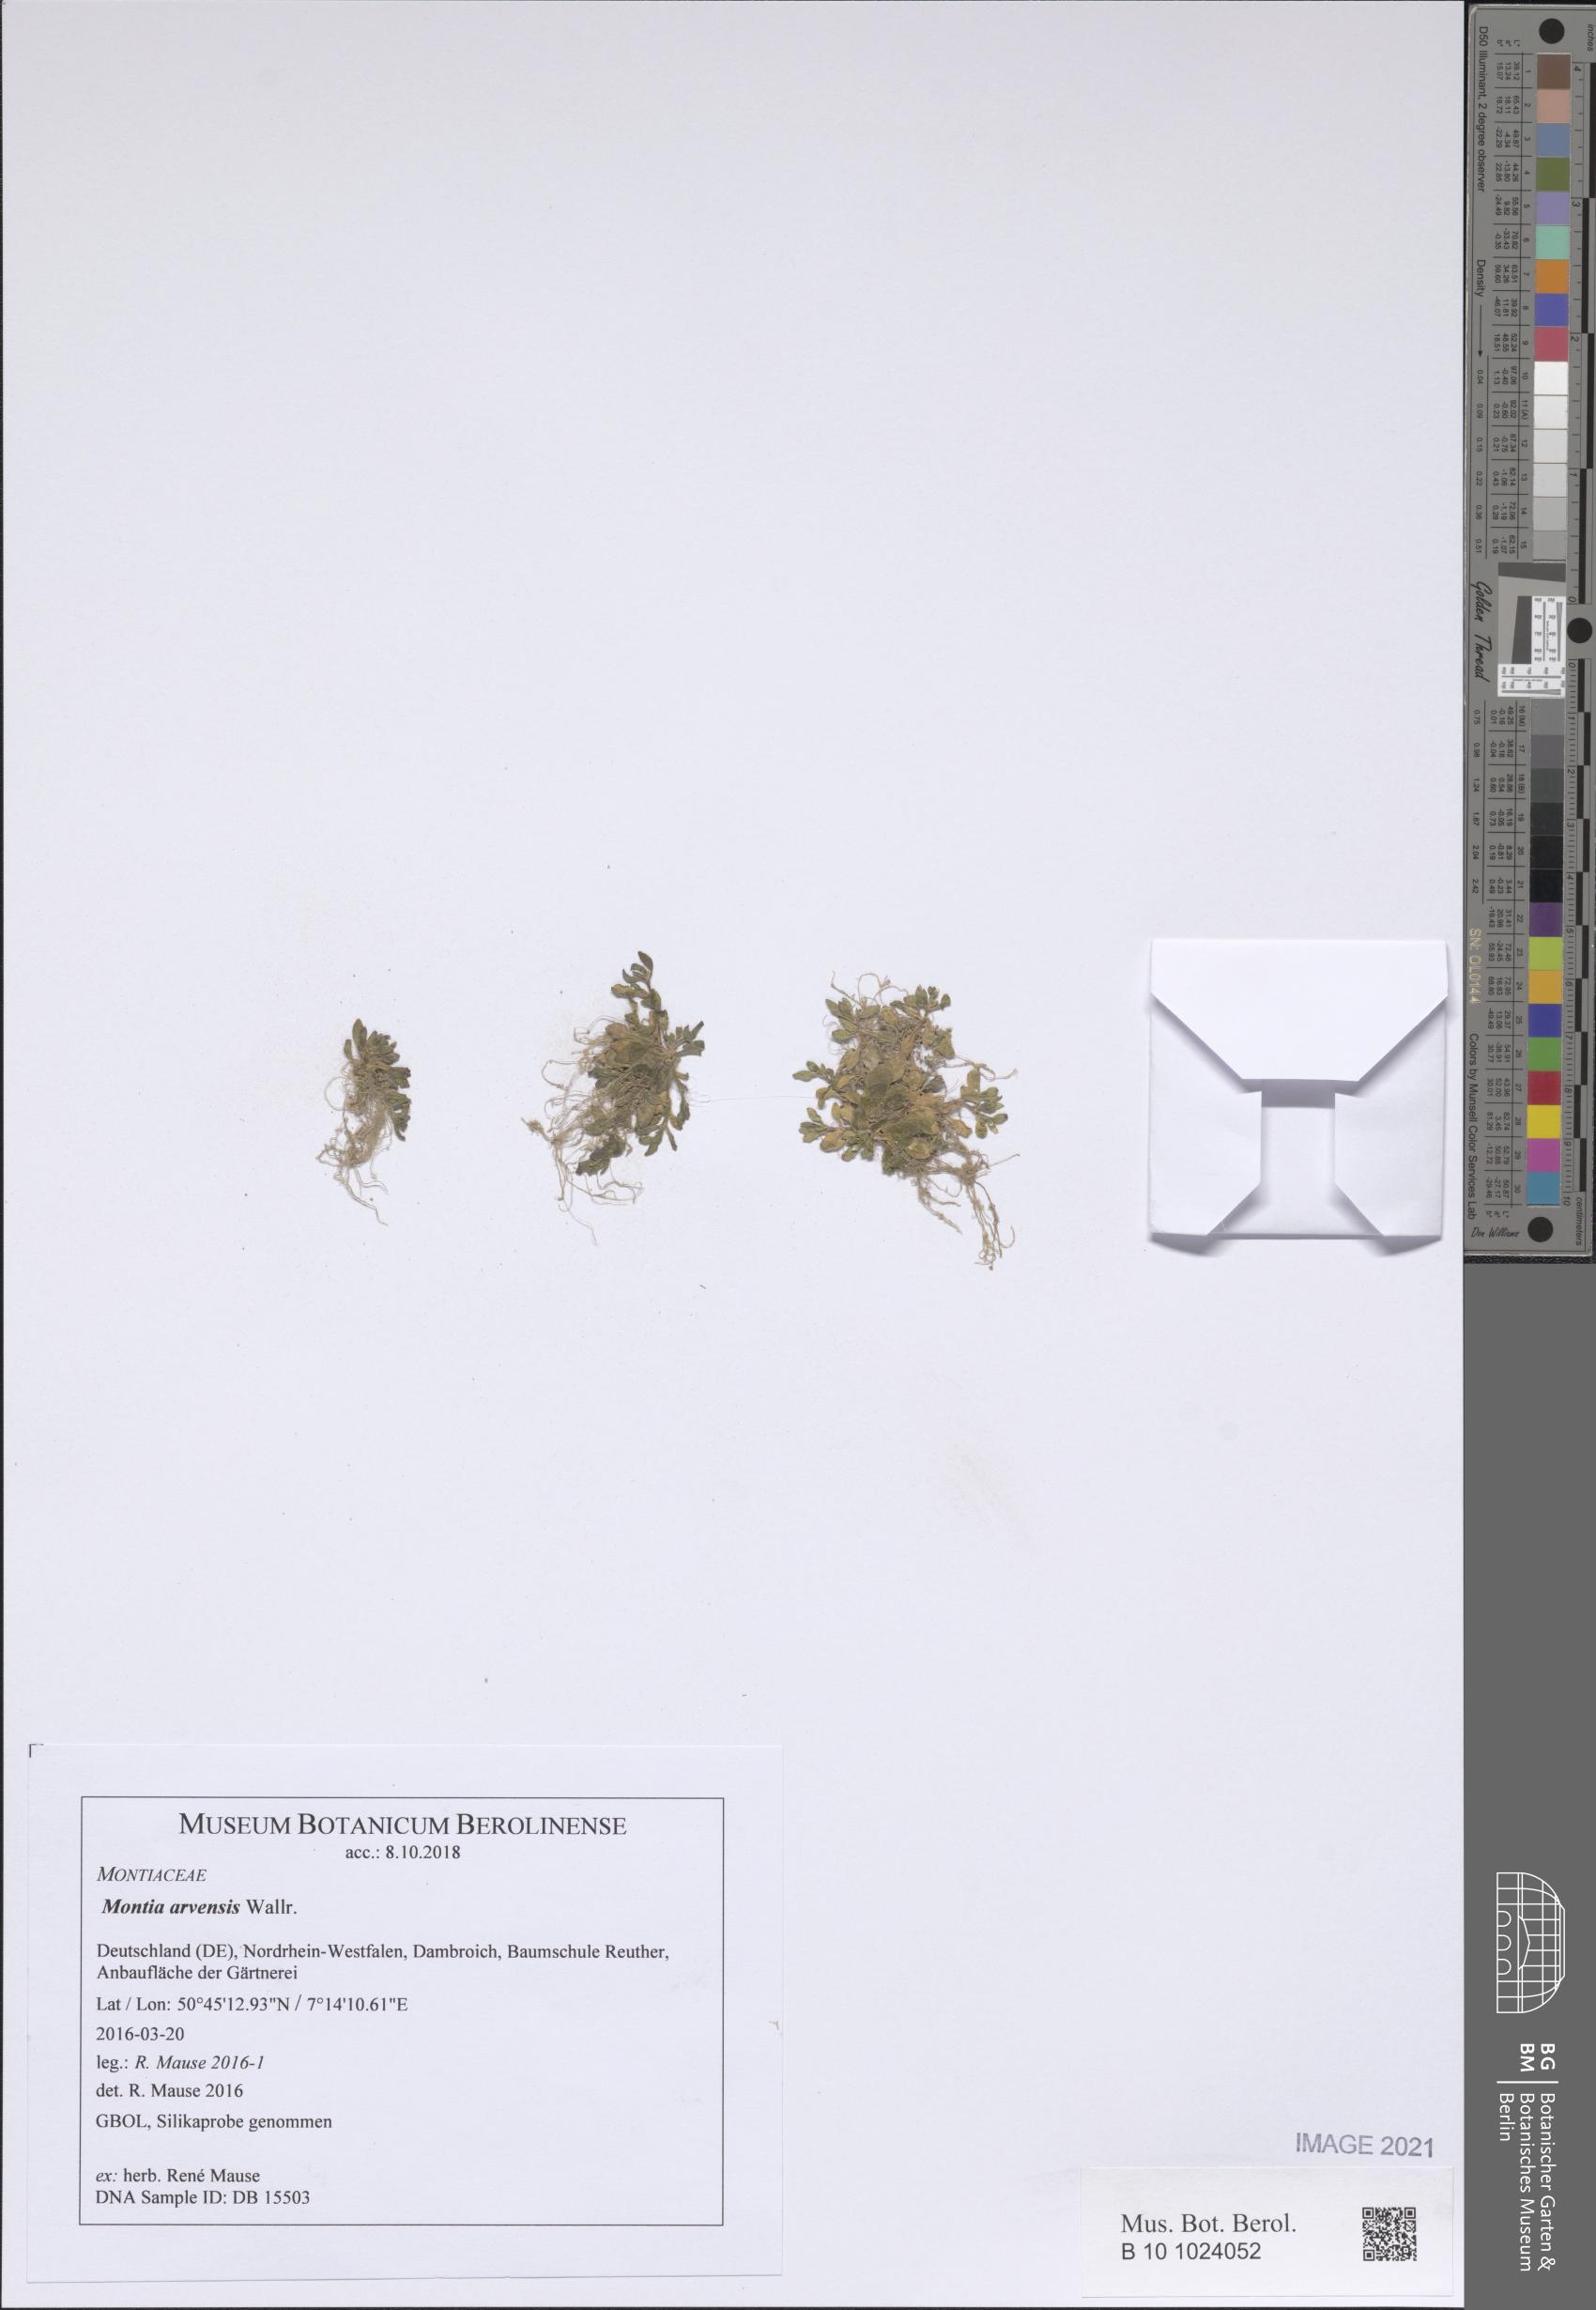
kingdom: Plantae
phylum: Tracheophyta
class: Magnoliopsida
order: Caryophyllales
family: Montiaceae
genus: Montia
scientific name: Montia arvensis
